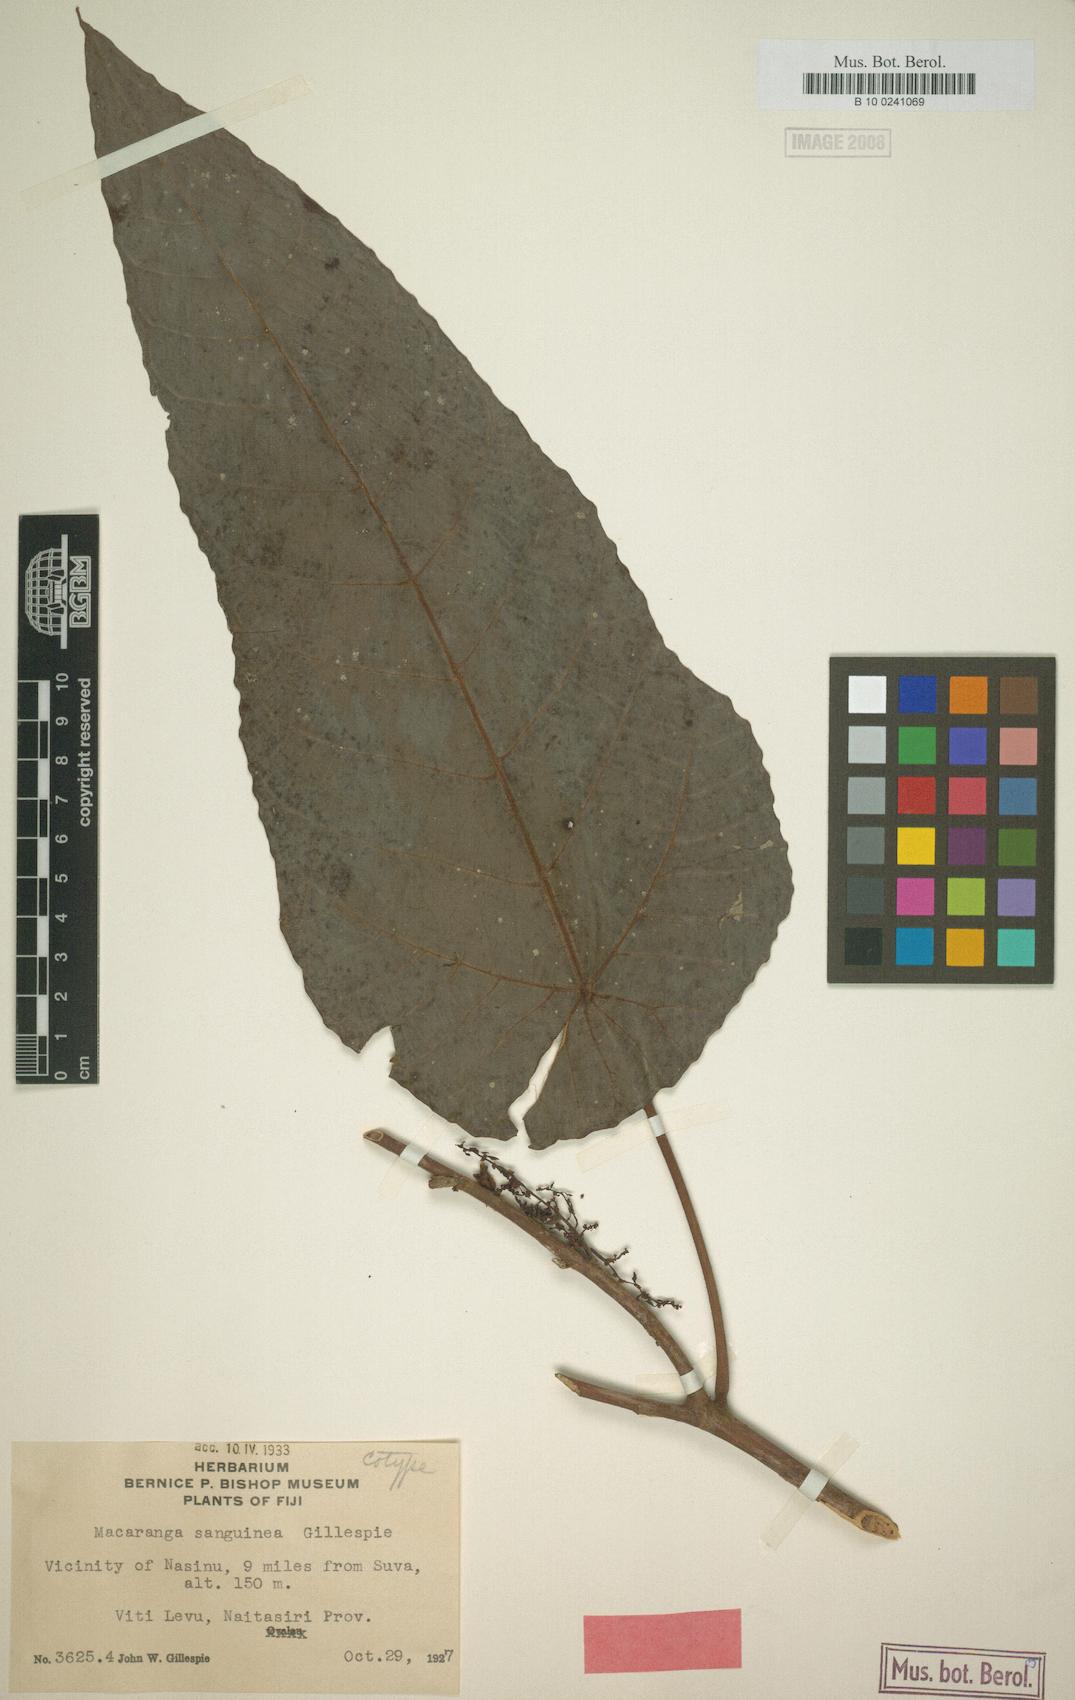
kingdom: Plantae
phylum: Tracheophyta
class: Magnoliopsida
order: Malpighiales
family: Euphorbiaceae
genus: Macaranga
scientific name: Macaranga vitiensis
